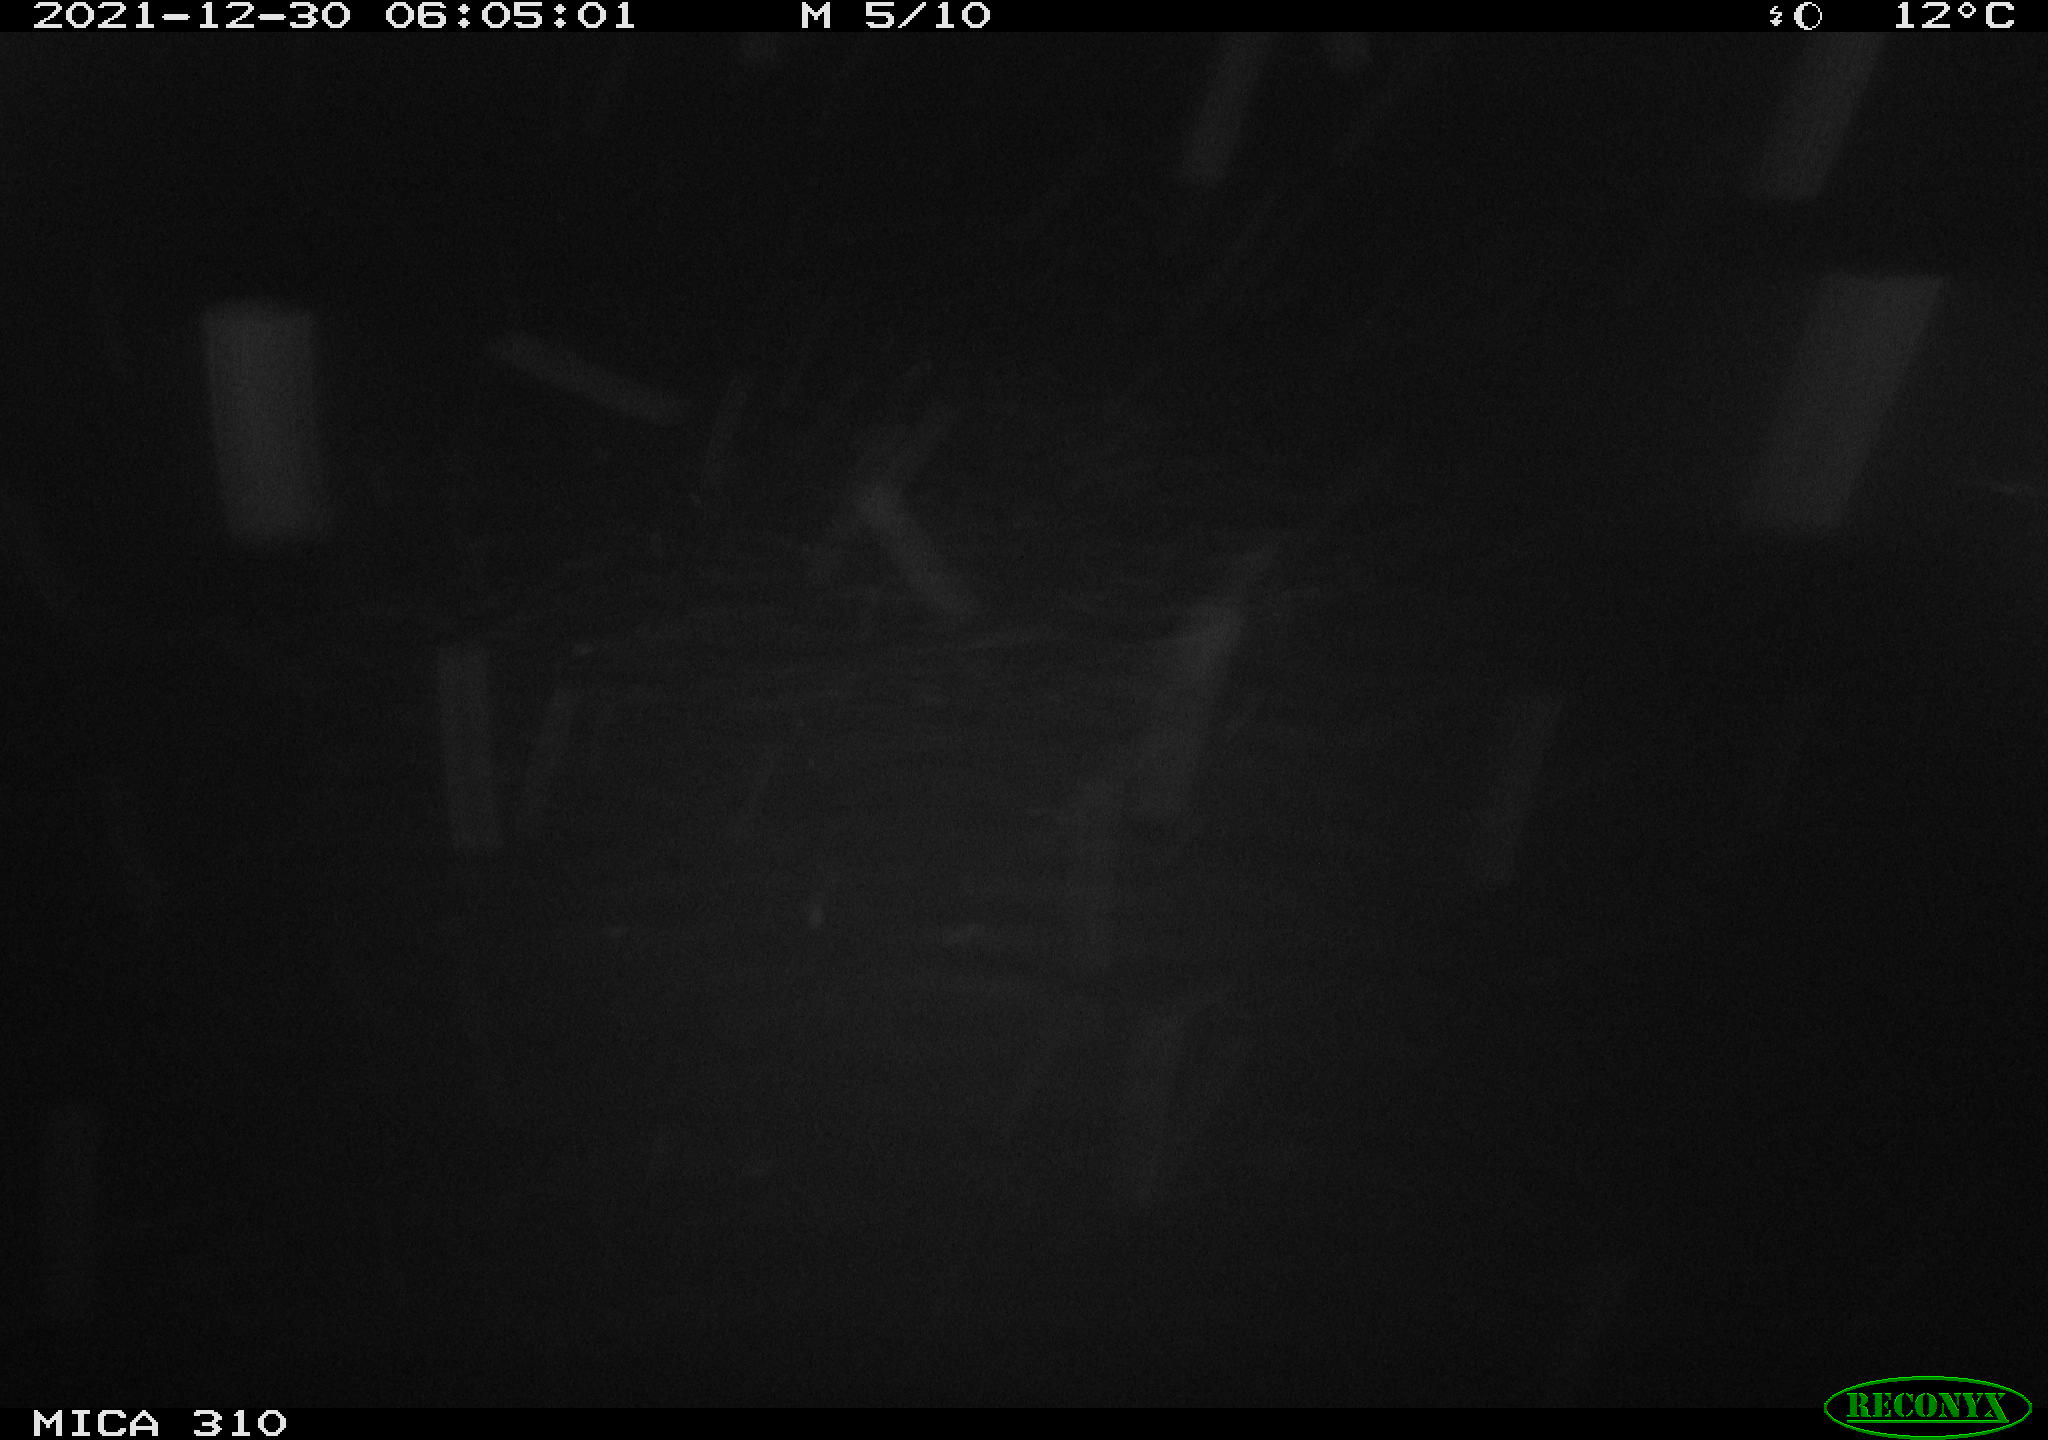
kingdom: Animalia
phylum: Chordata
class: Mammalia
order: Rodentia
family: Muridae
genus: Rattus
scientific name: Rattus norvegicus
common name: Brown rat
